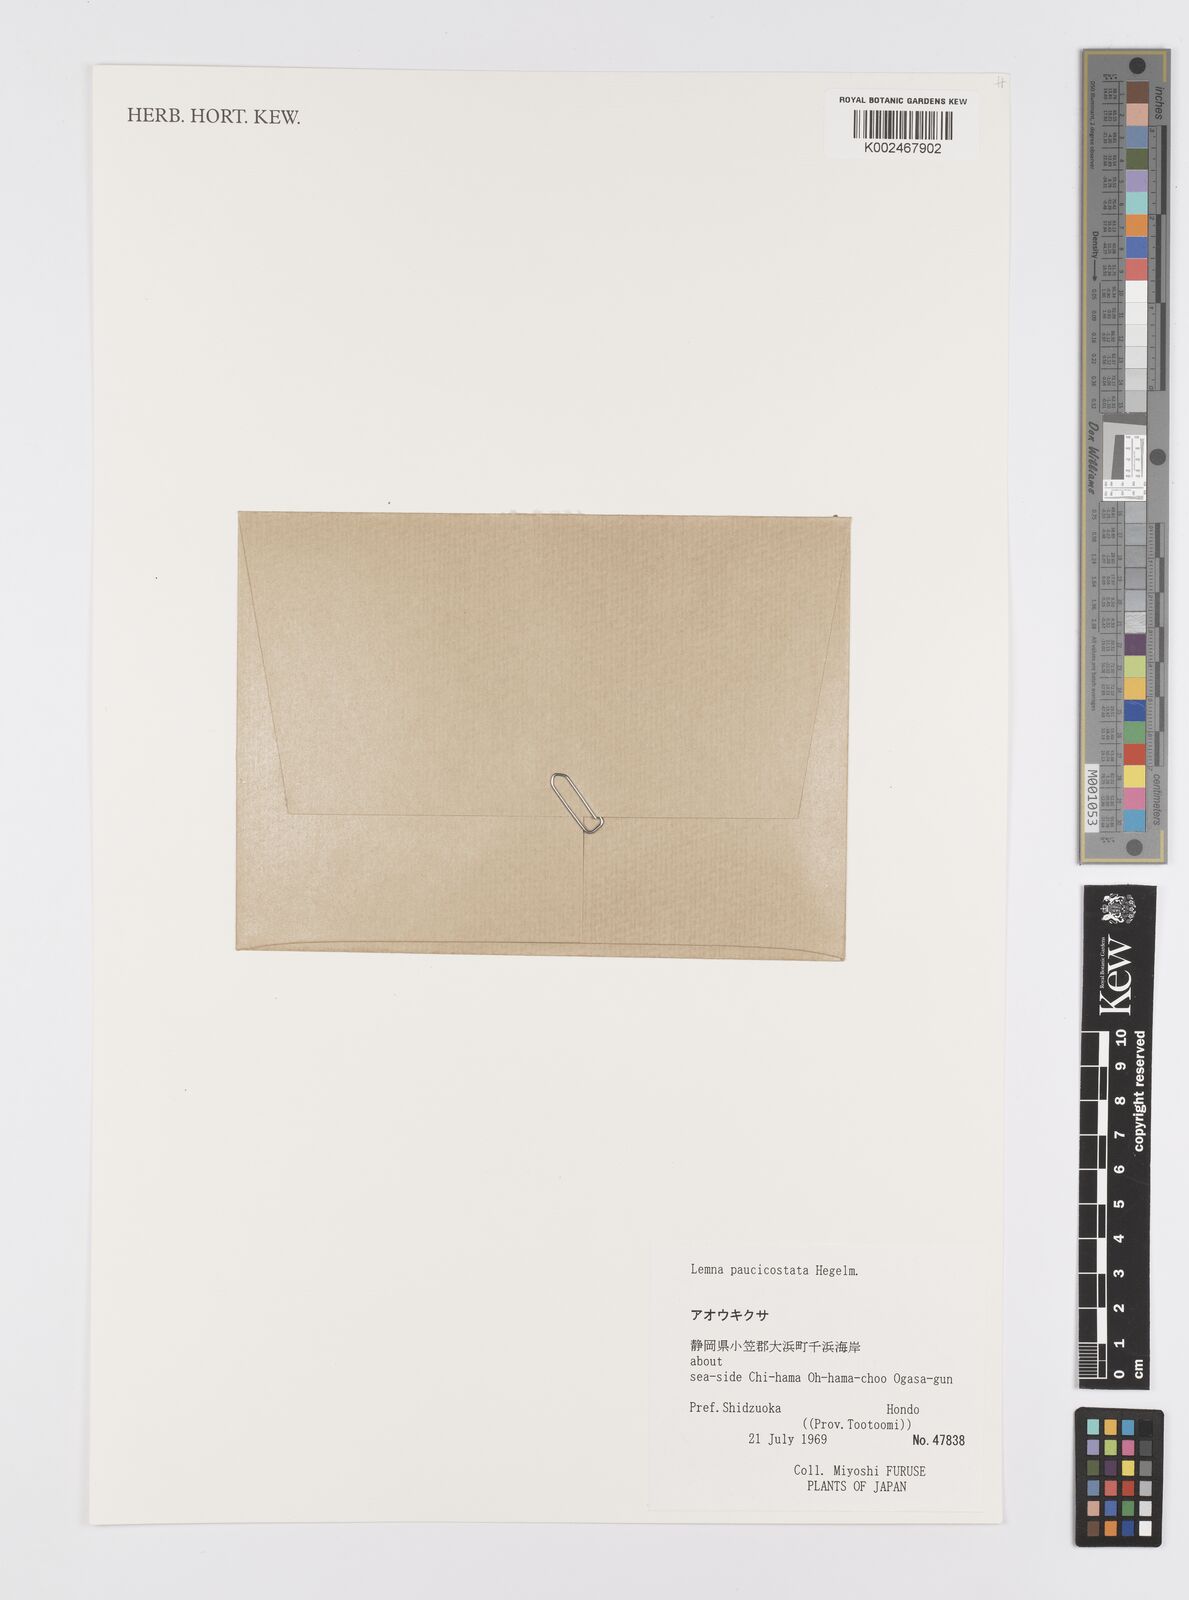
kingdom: Plantae
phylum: Tracheophyta
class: Liliopsida
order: Alismatales
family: Araceae
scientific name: Araceae
